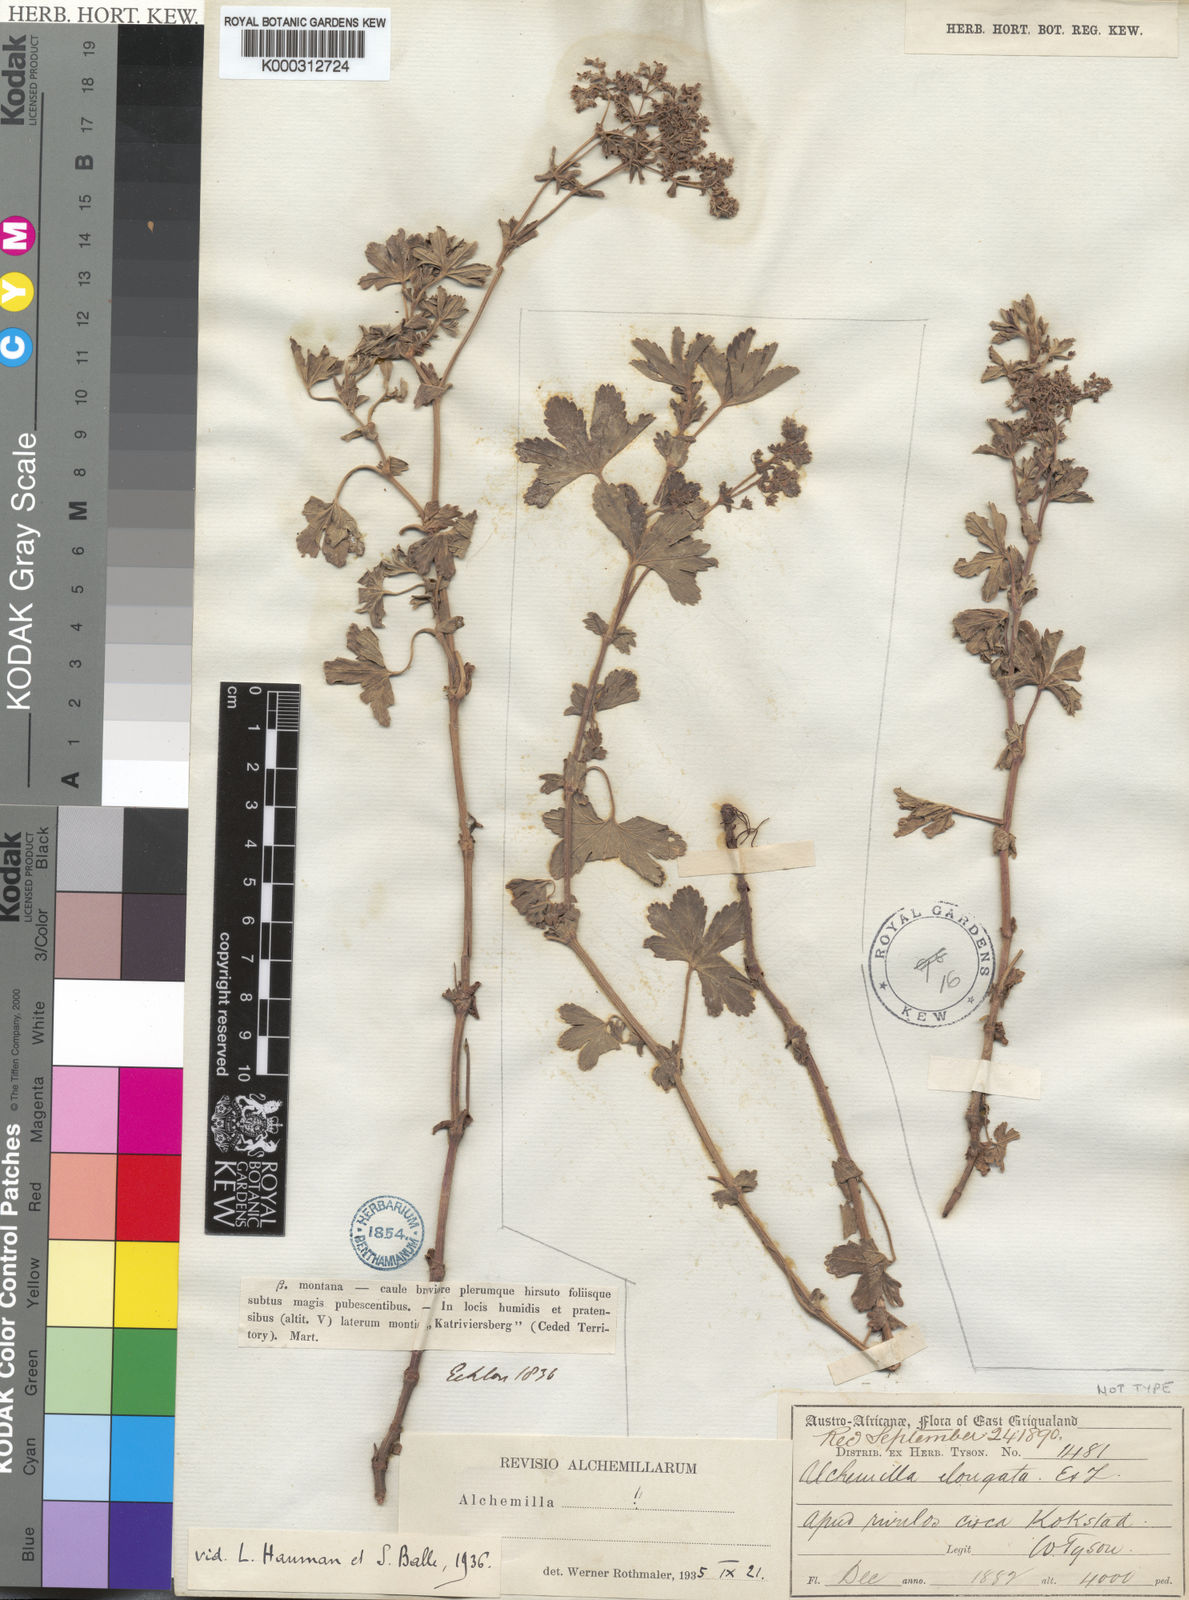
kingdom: Plantae
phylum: Tracheophyta
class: Magnoliopsida
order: Rosales
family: Rosaceae
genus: Alchemilla
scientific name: Alchemilla
